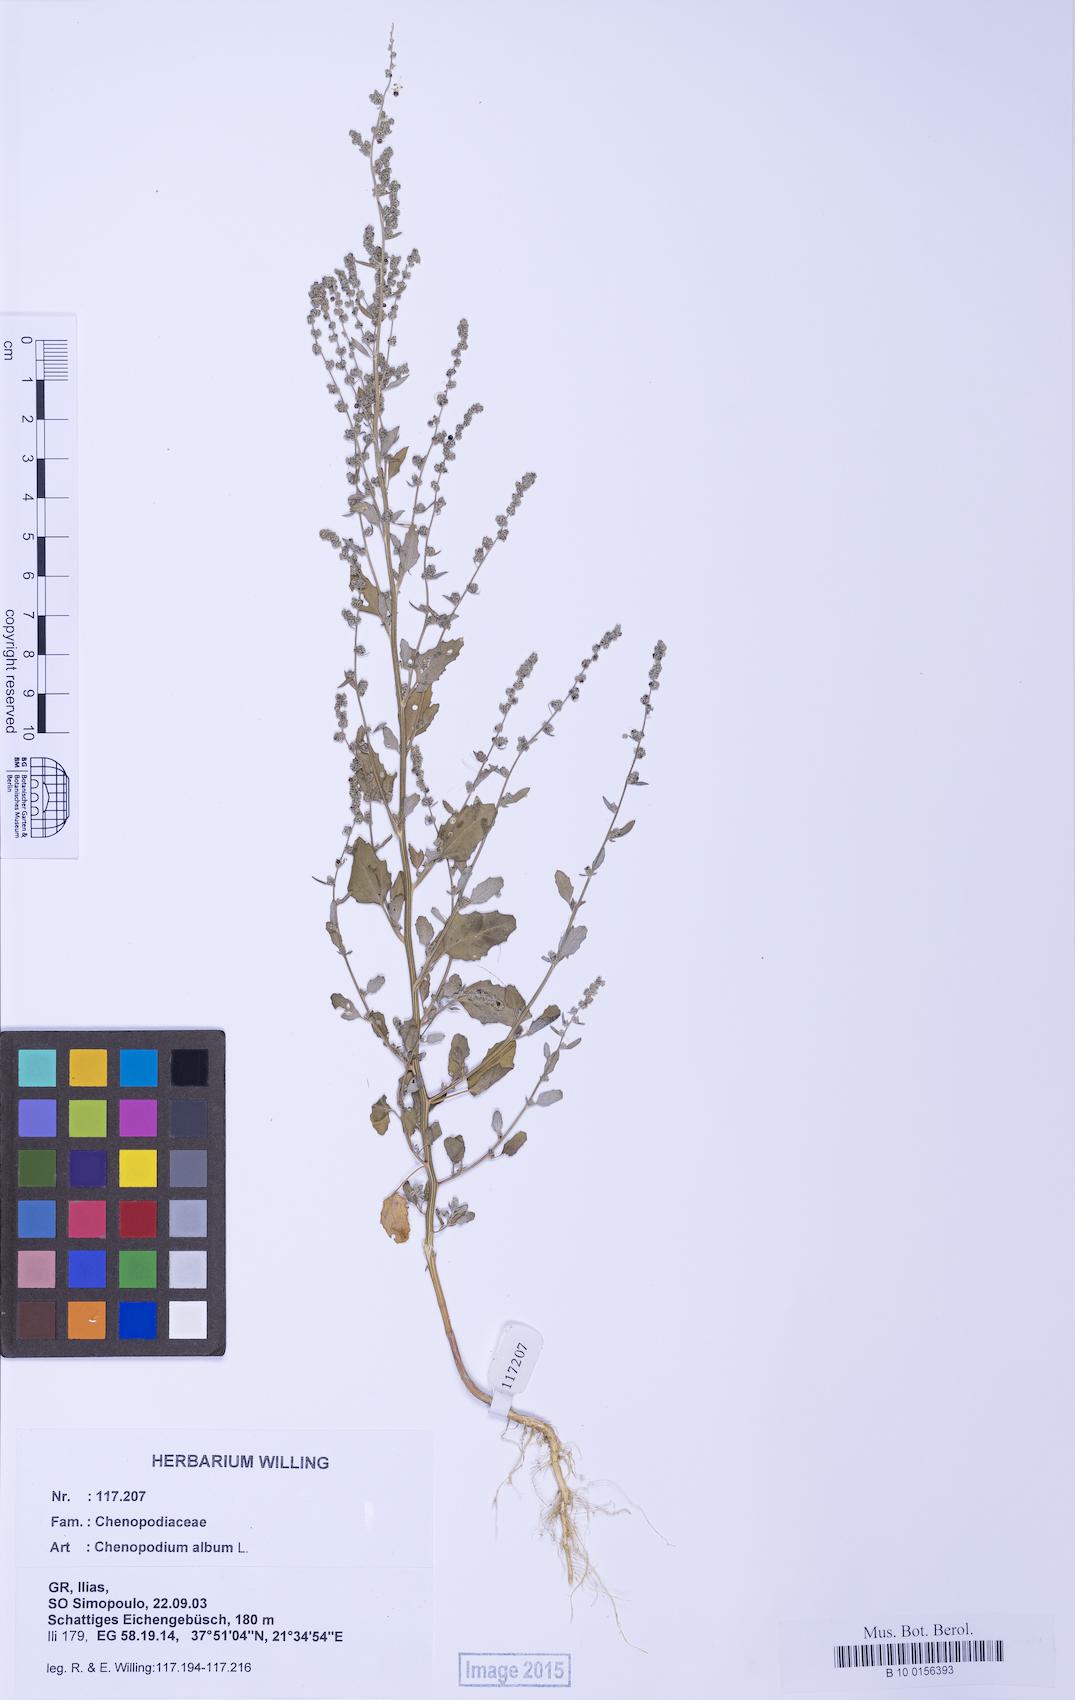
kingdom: Plantae
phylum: Tracheophyta
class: Magnoliopsida
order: Caryophyllales
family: Amaranthaceae
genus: Chenopodium
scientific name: Chenopodium album
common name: Fat-hen
